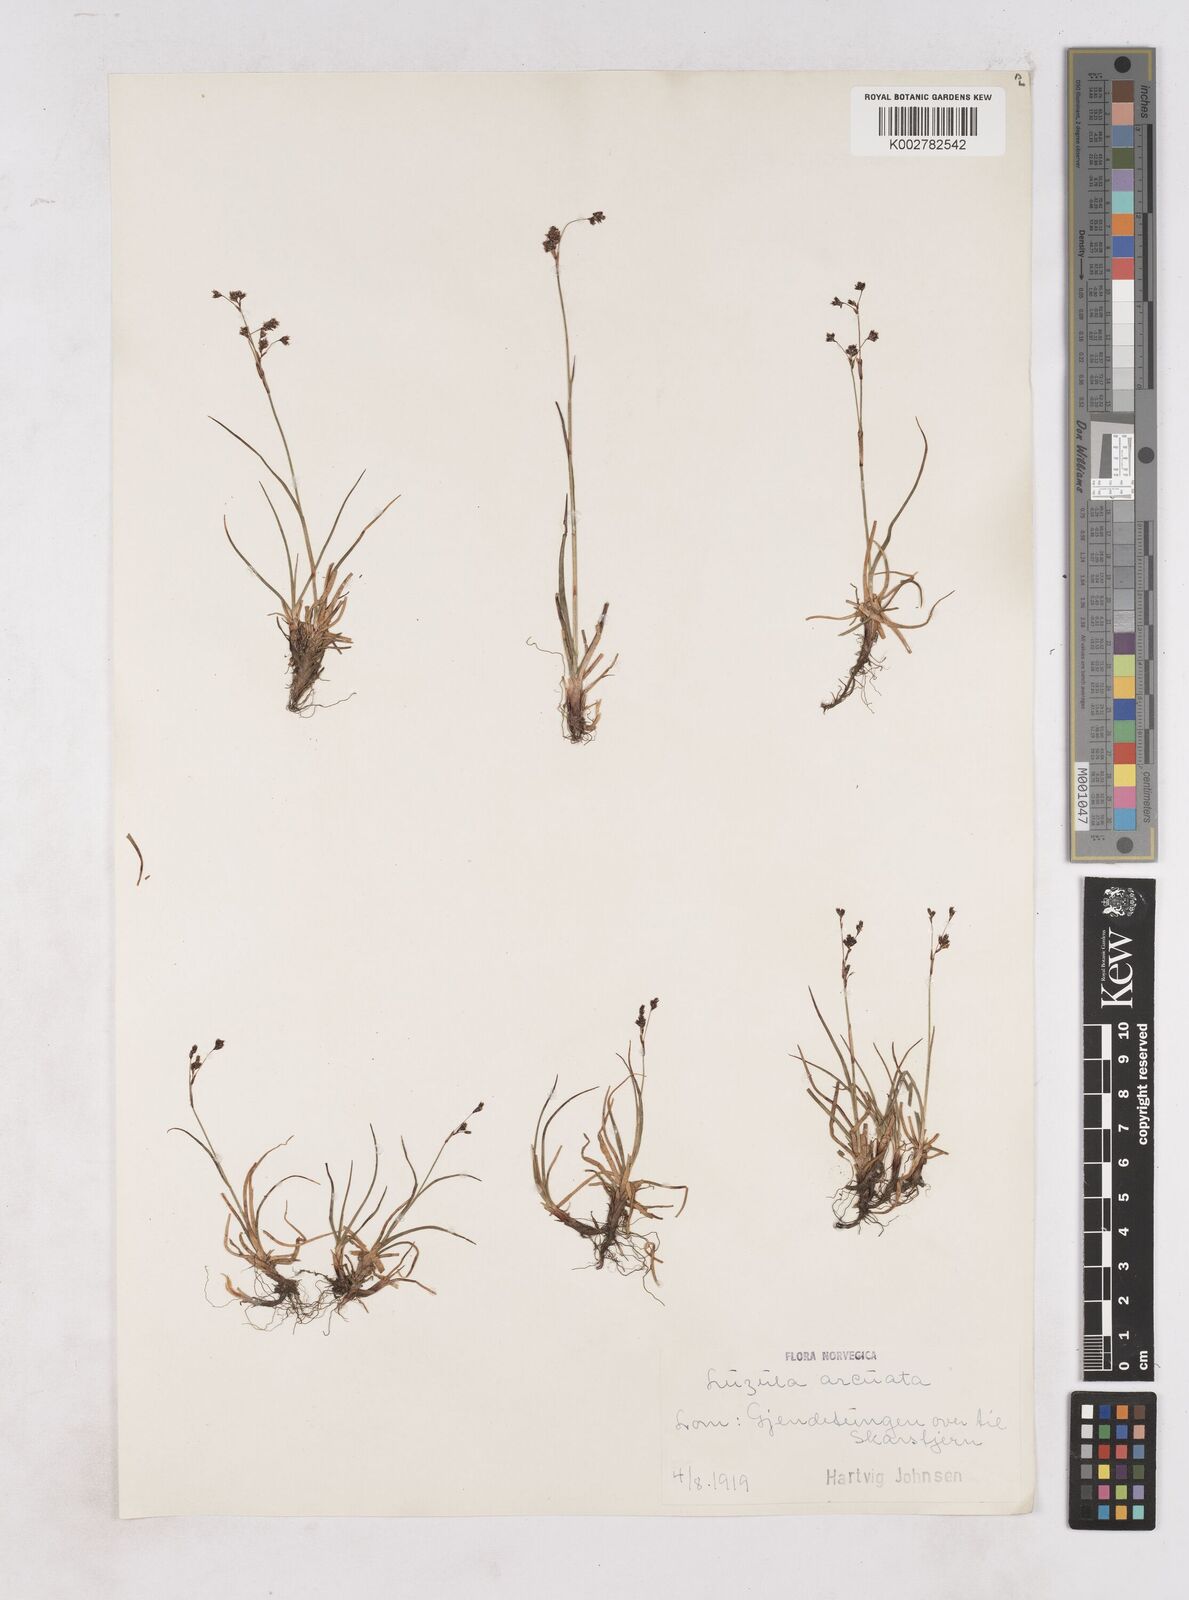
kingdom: Plantae
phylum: Tracheophyta
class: Liliopsida
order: Poales
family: Juncaceae
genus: Luzula
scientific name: Luzula arcuata
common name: Curved wood-rush
